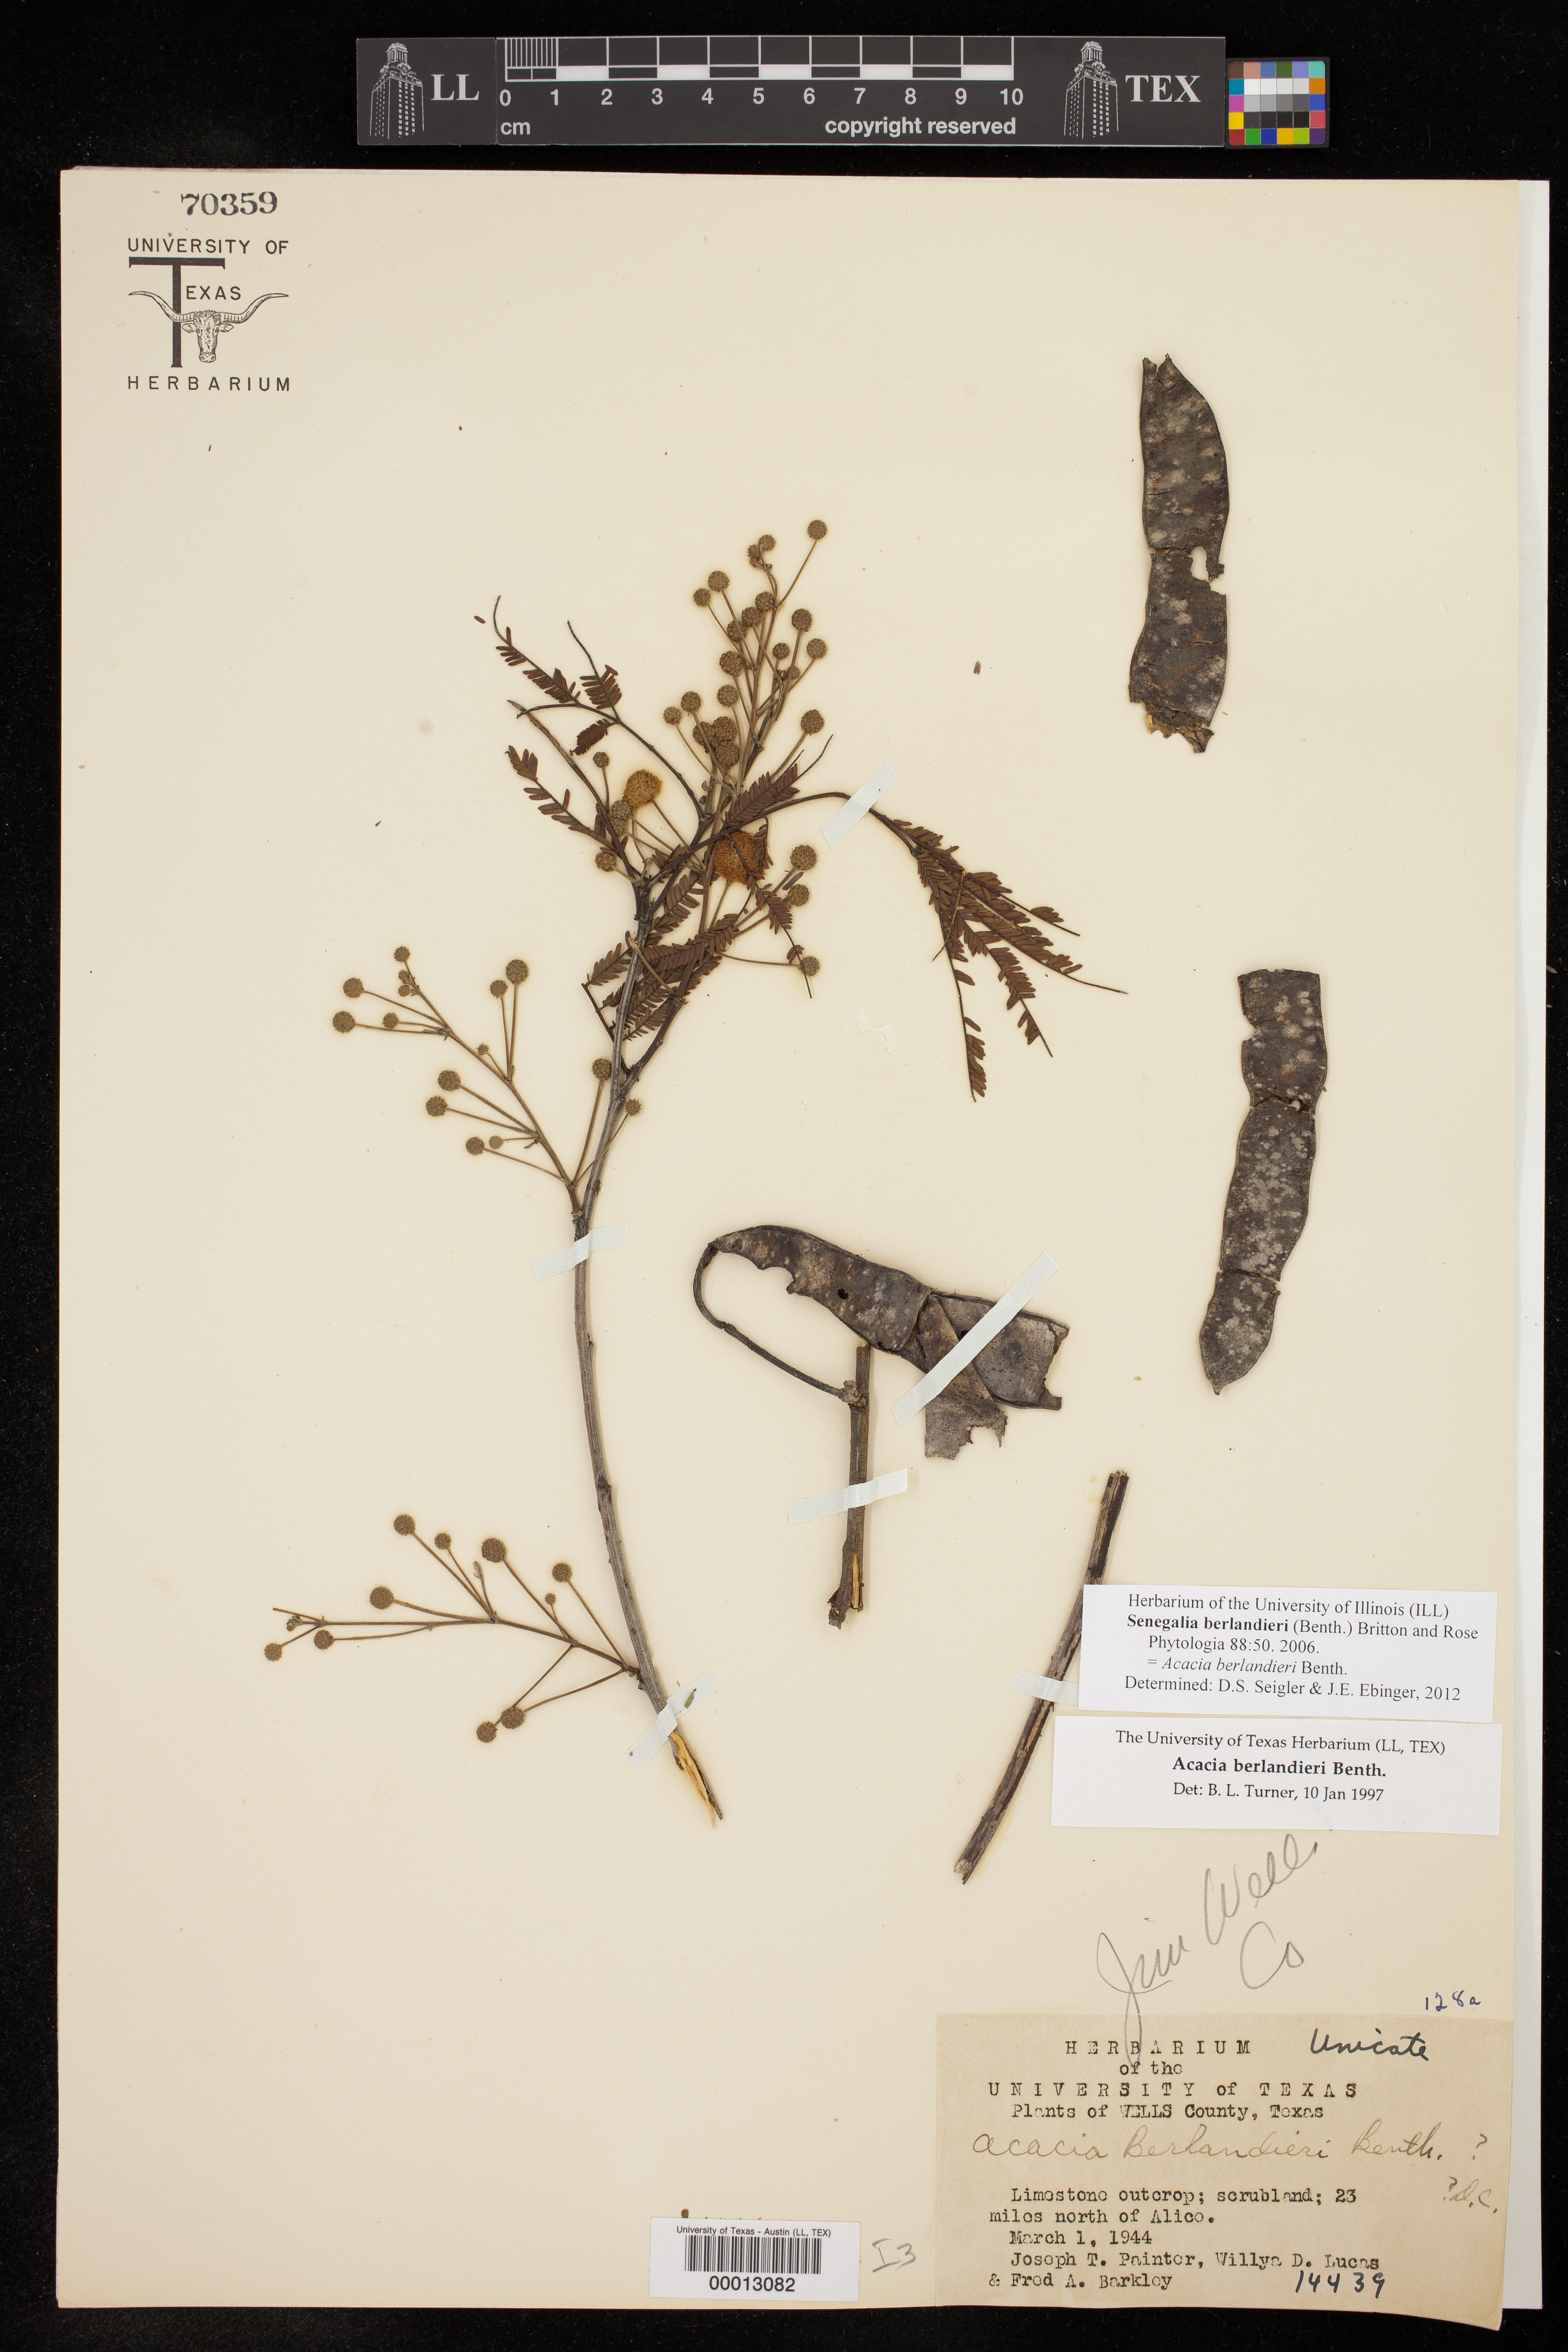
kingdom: Plantae
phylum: Tracheophyta
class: Magnoliopsida
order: Fabales
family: Fabaceae
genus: Senegalia
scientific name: Senegalia berlandieri
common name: Berlandier acacia
